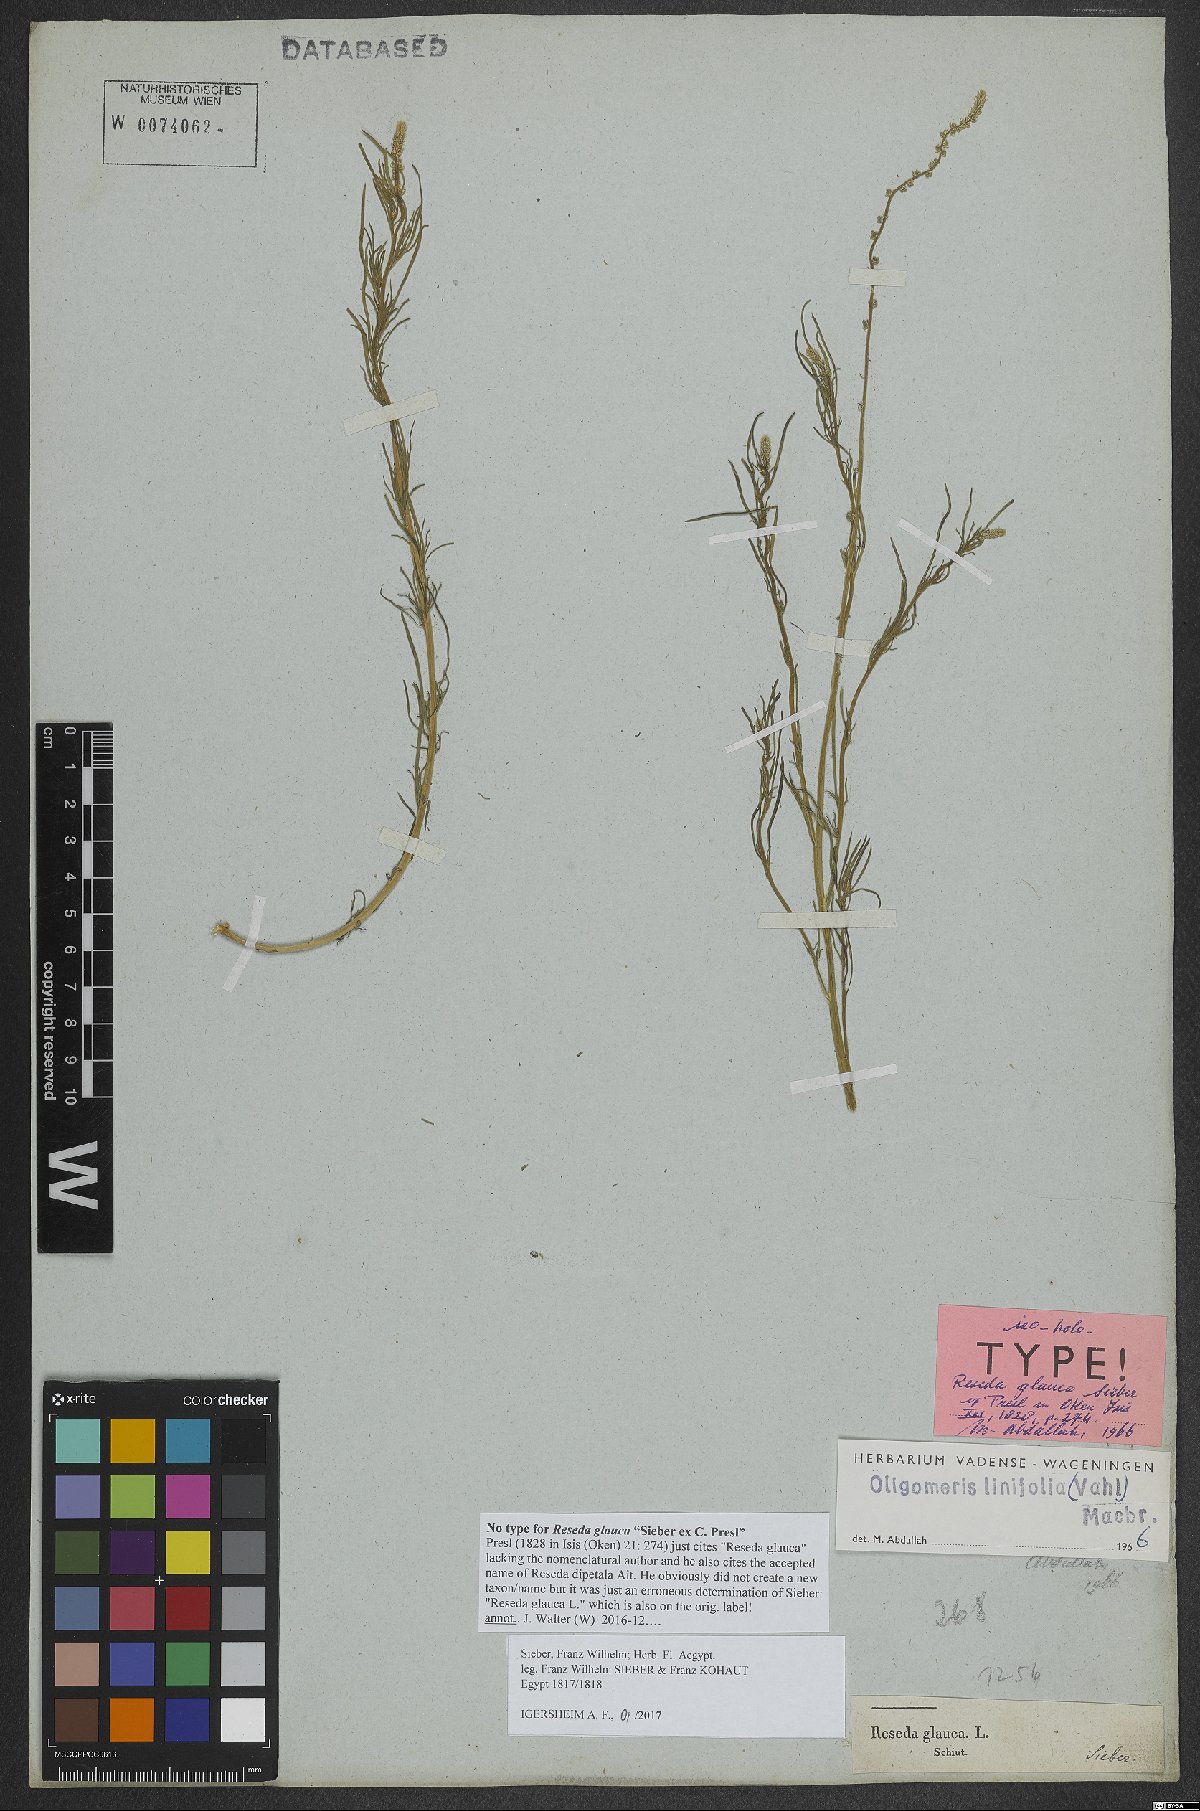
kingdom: Plantae
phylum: Tracheophyta
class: Magnoliopsida
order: Brassicales
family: Resedaceae
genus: Oligomeris
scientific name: Oligomeris linifolia
